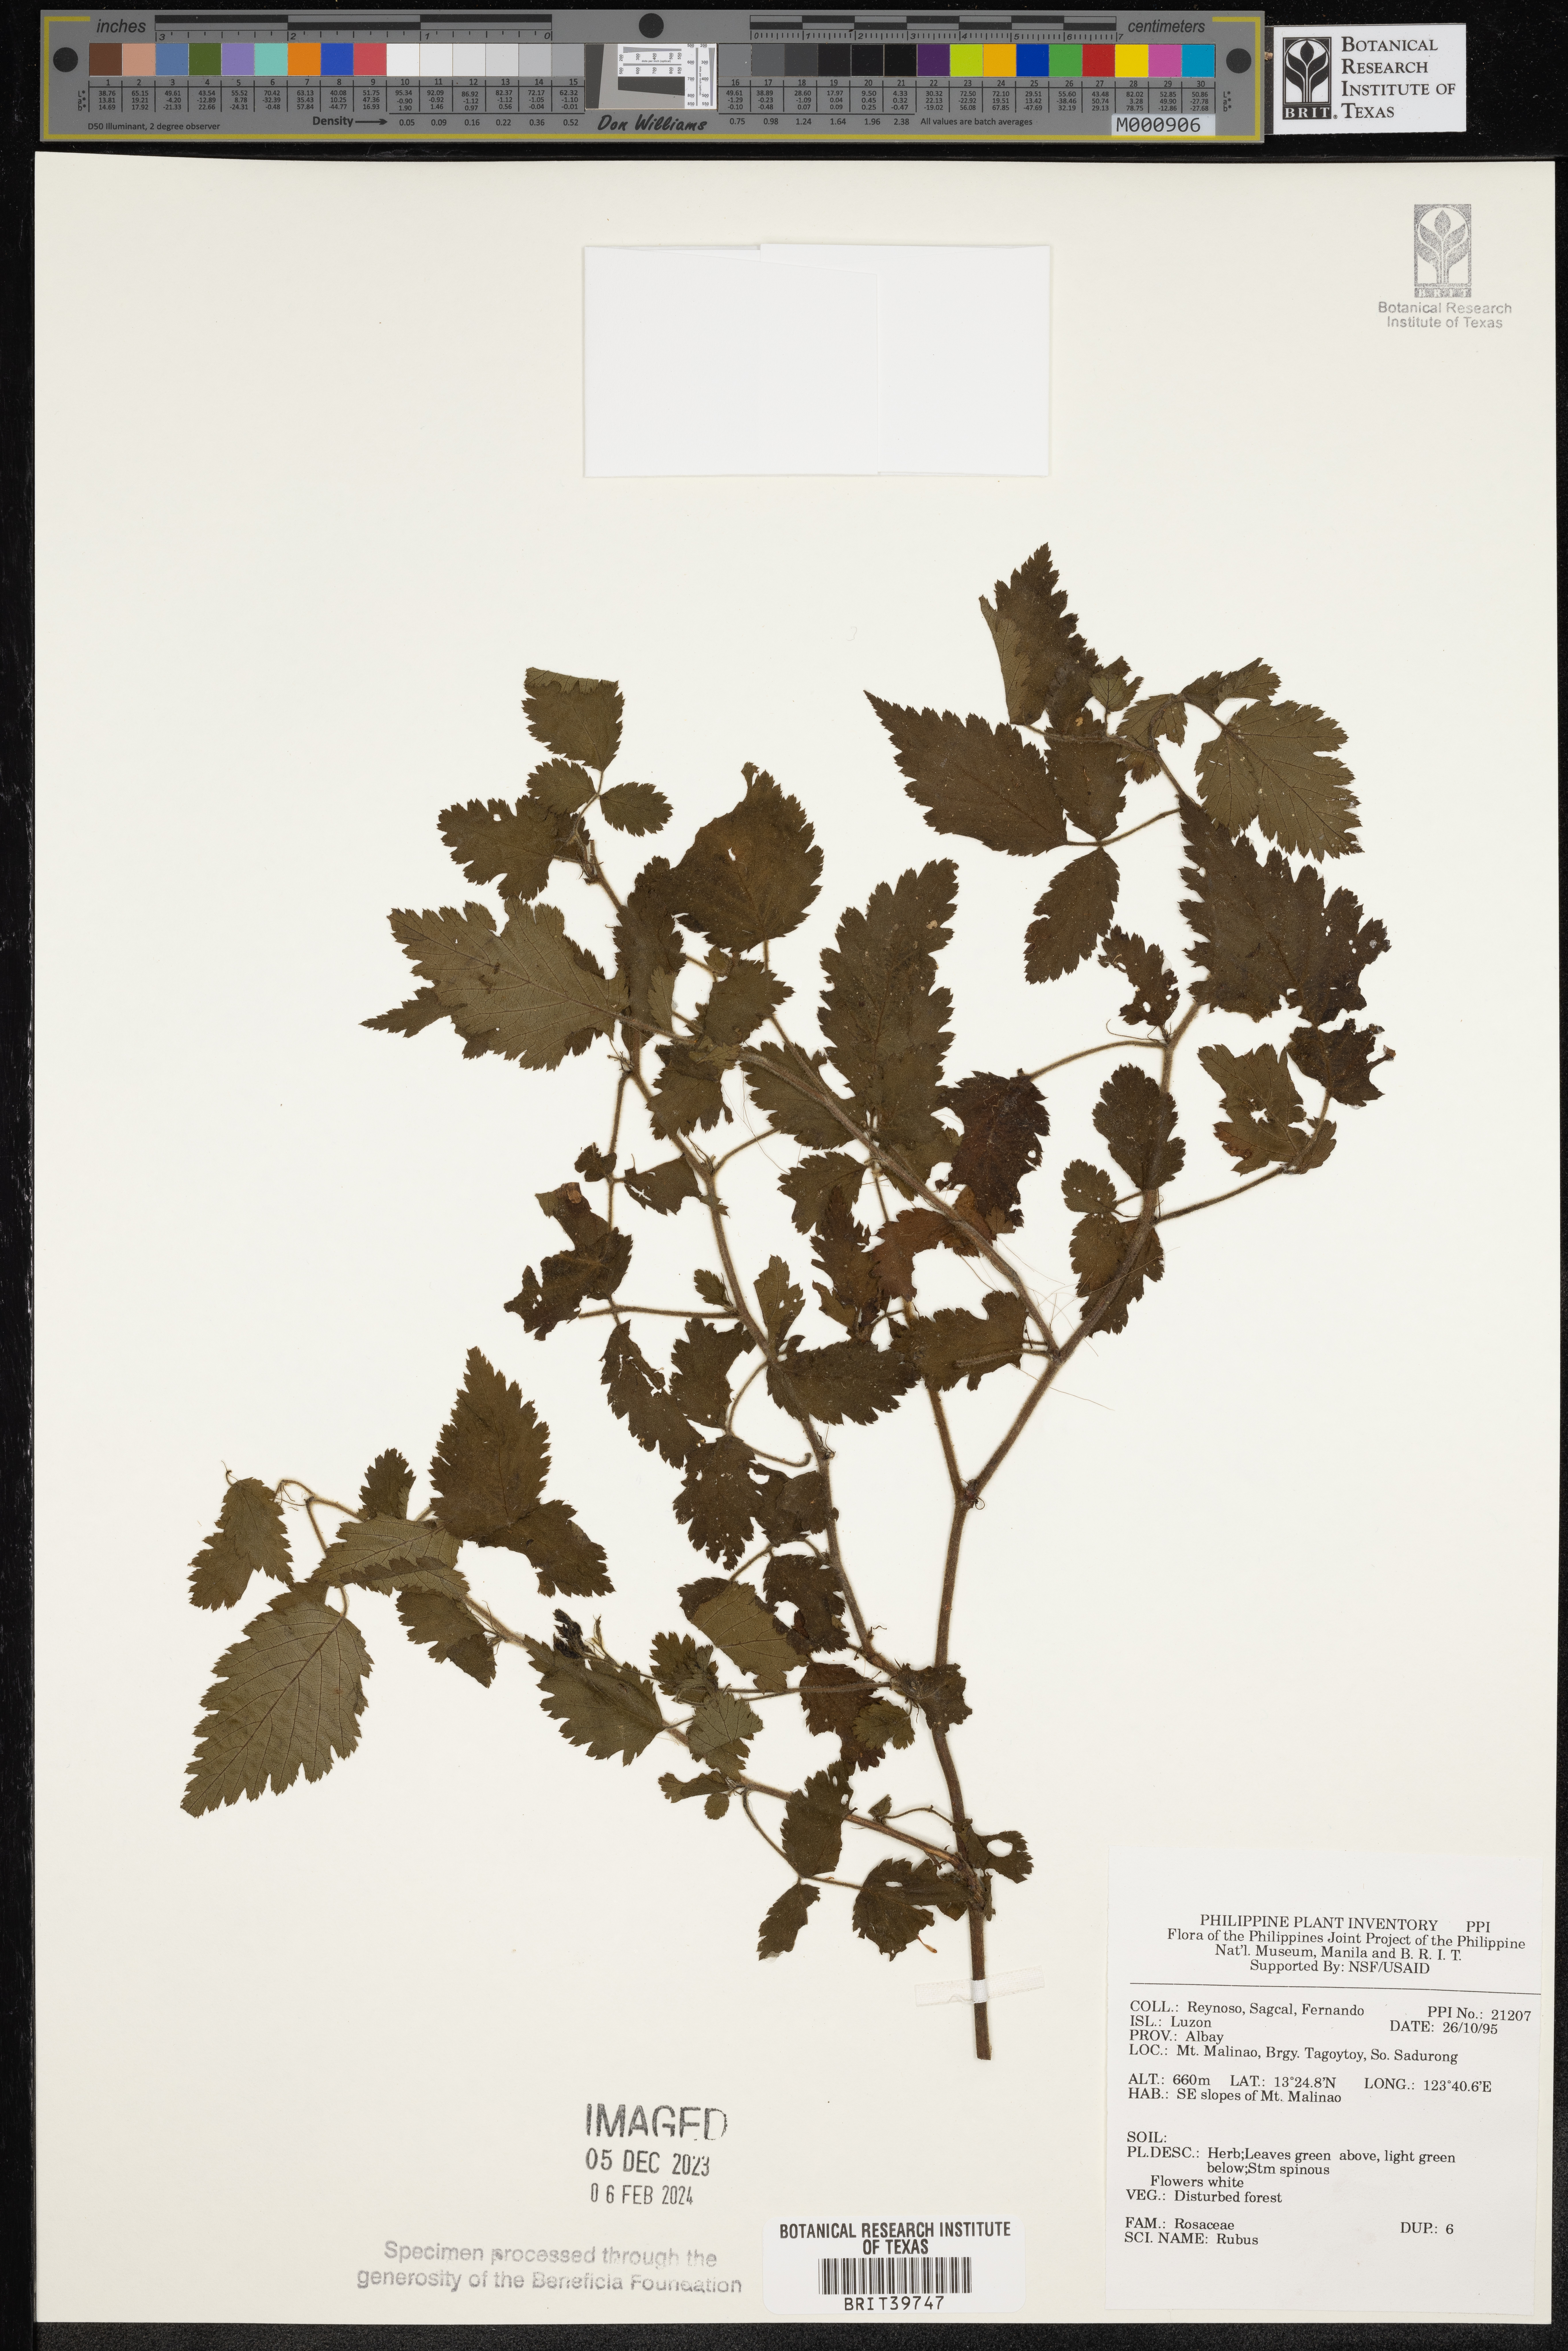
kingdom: Plantae
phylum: Tracheophyta
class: Magnoliopsida
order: Rosales
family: Rosaceae
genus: Rubus
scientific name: Rubus
